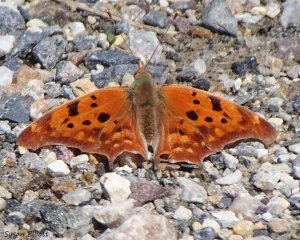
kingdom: Animalia
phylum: Arthropoda
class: Insecta
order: Lepidoptera
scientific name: Lepidoptera
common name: Butterflies
